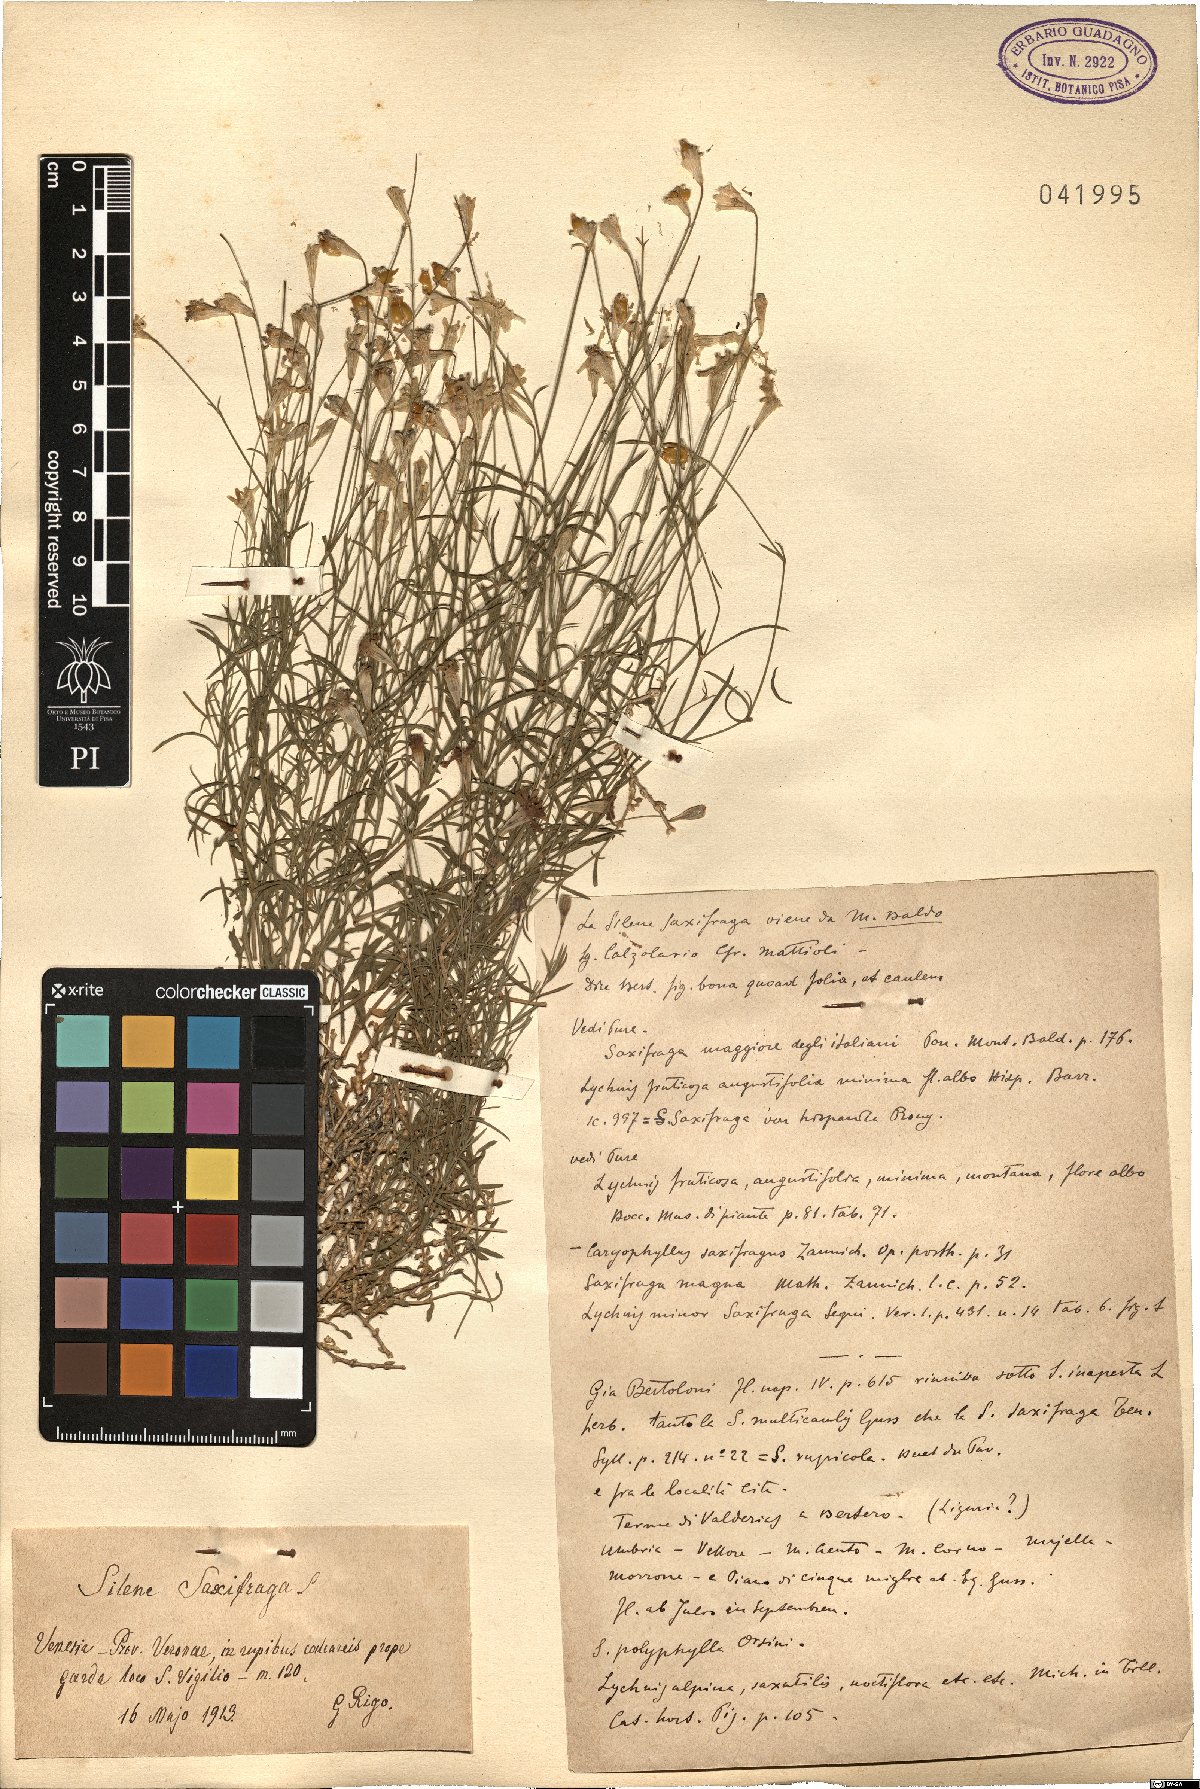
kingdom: Plantae
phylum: Tracheophyta
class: Magnoliopsida
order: Caryophyllales
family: Caryophyllaceae
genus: Silene
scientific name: Silene saxifraga
